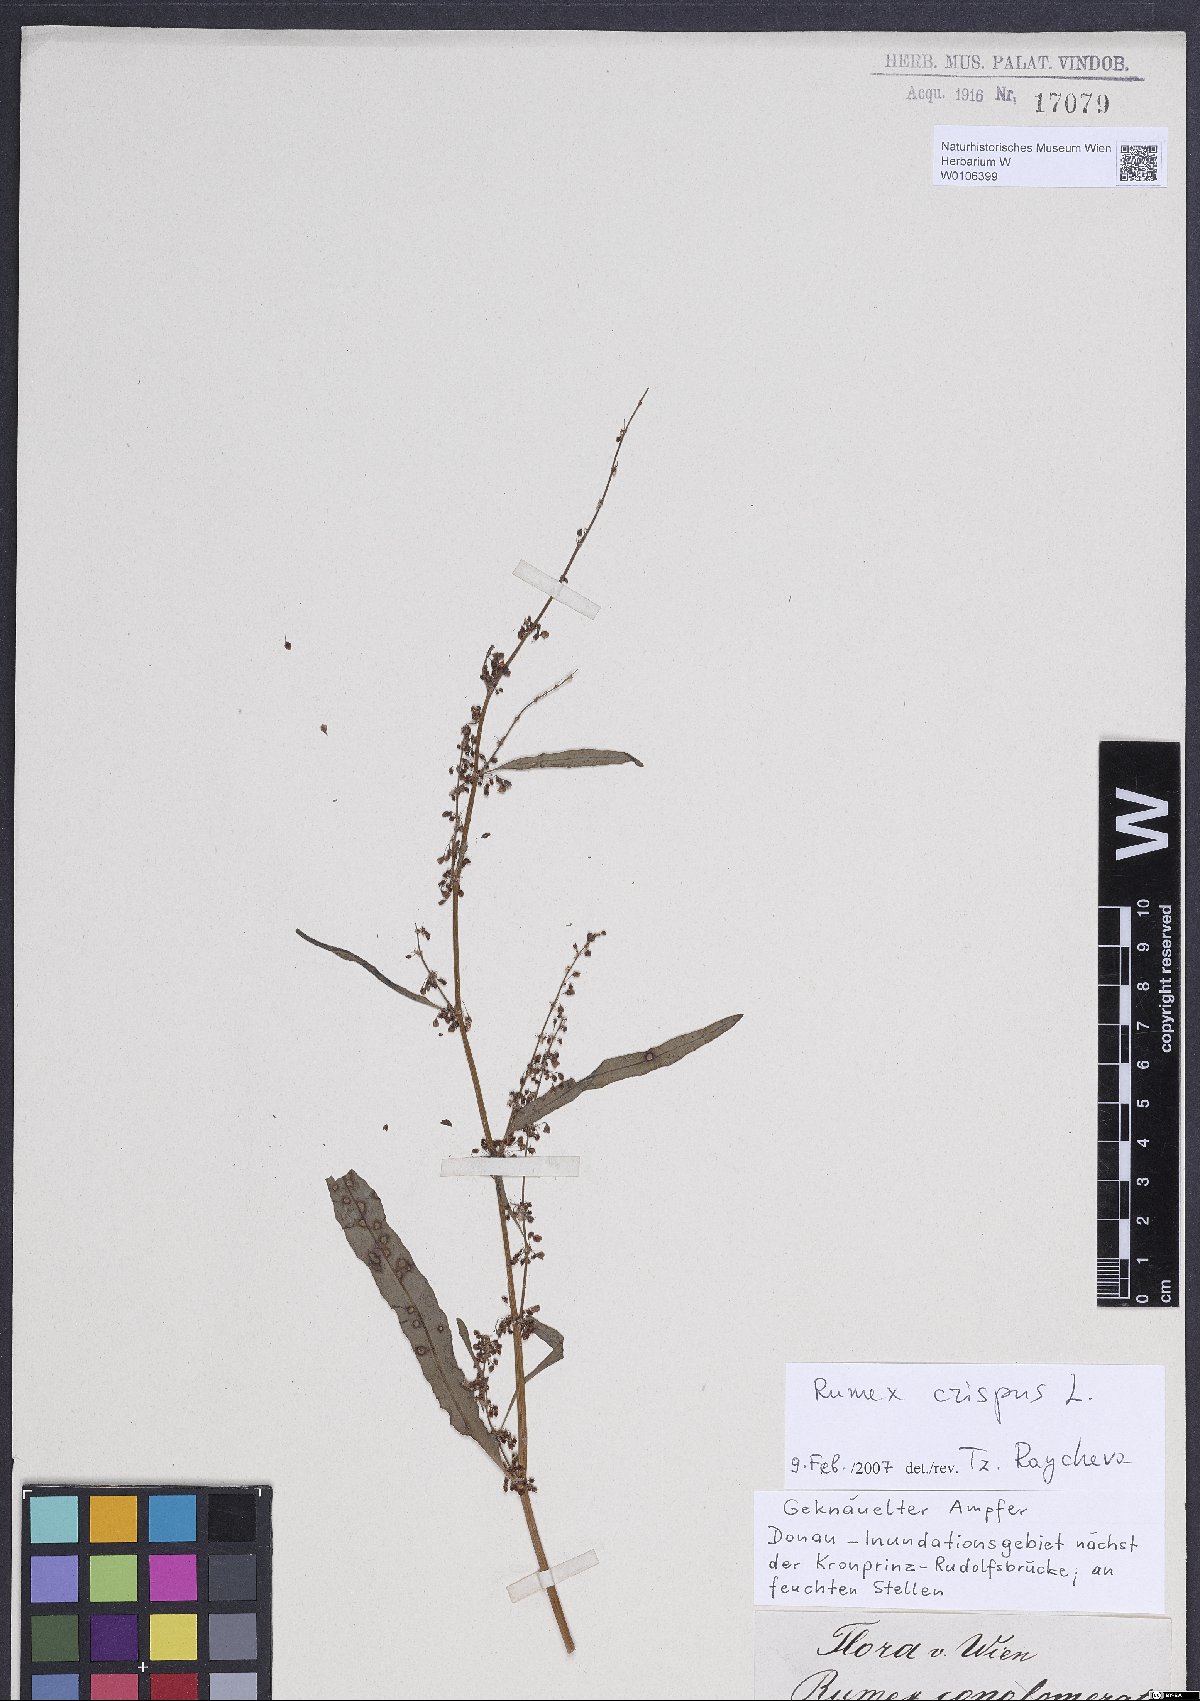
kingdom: Plantae
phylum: Tracheophyta
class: Magnoliopsida
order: Caryophyllales
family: Polygonaceae
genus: Rumex
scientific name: Rumex crispus
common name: Curled dock
